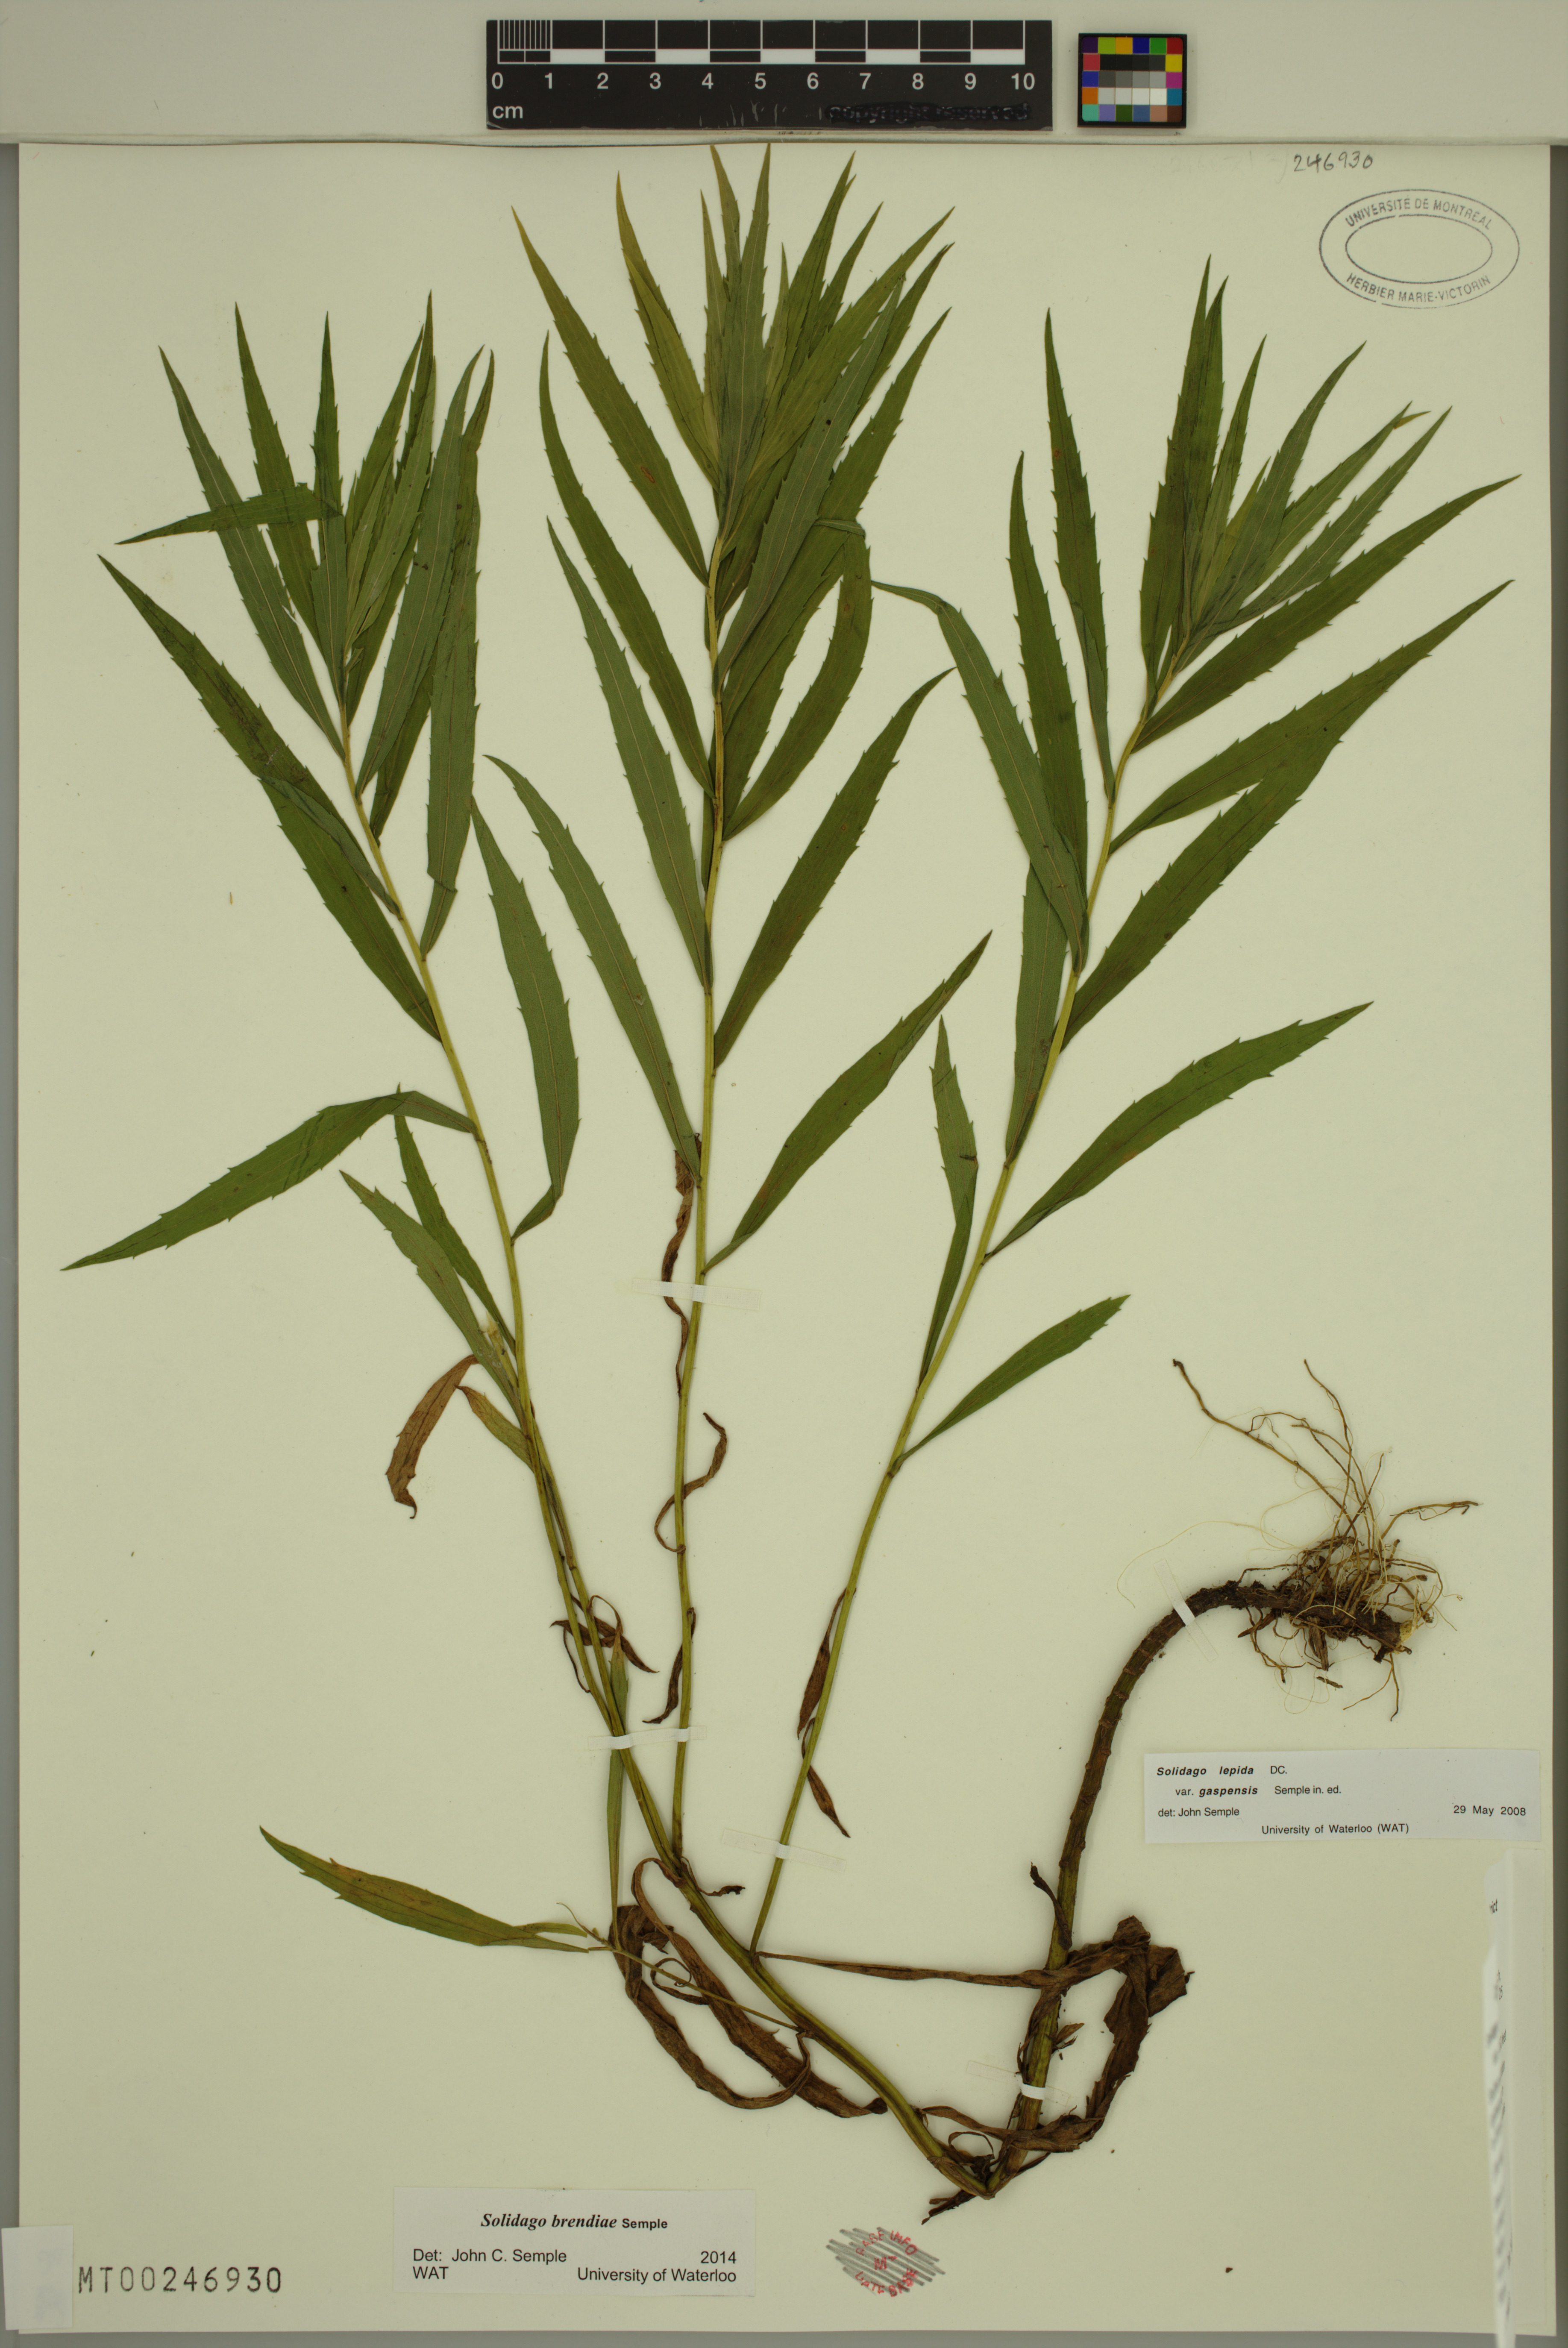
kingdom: Plantae
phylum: Tracheophyta
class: Magnoliopsida
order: Asterales
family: Asteraceae
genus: Solidago
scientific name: Solidago brendae
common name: Brenda's goldenrod
